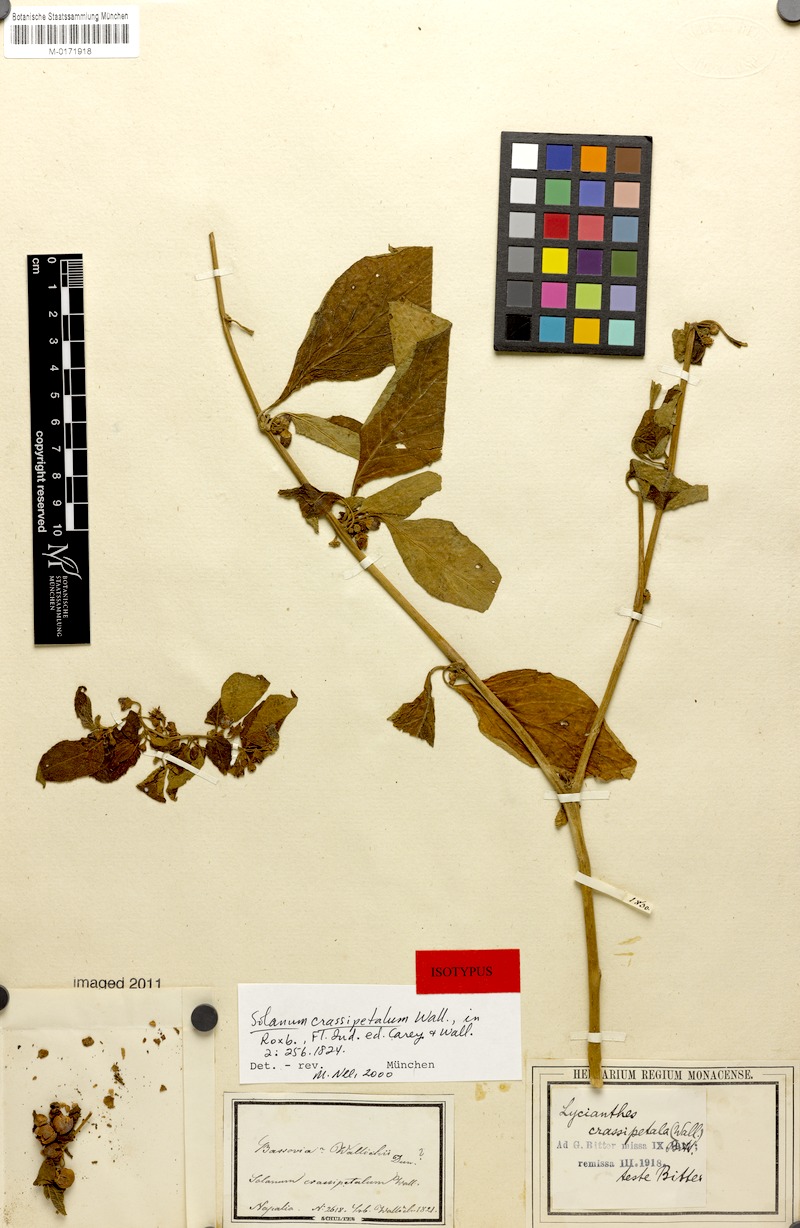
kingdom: Plantae
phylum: Tracheophyta
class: Magnoliopsida
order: Solanales
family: Solanaceae
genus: Lycianthes
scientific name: Lycianthes crassipetalum
